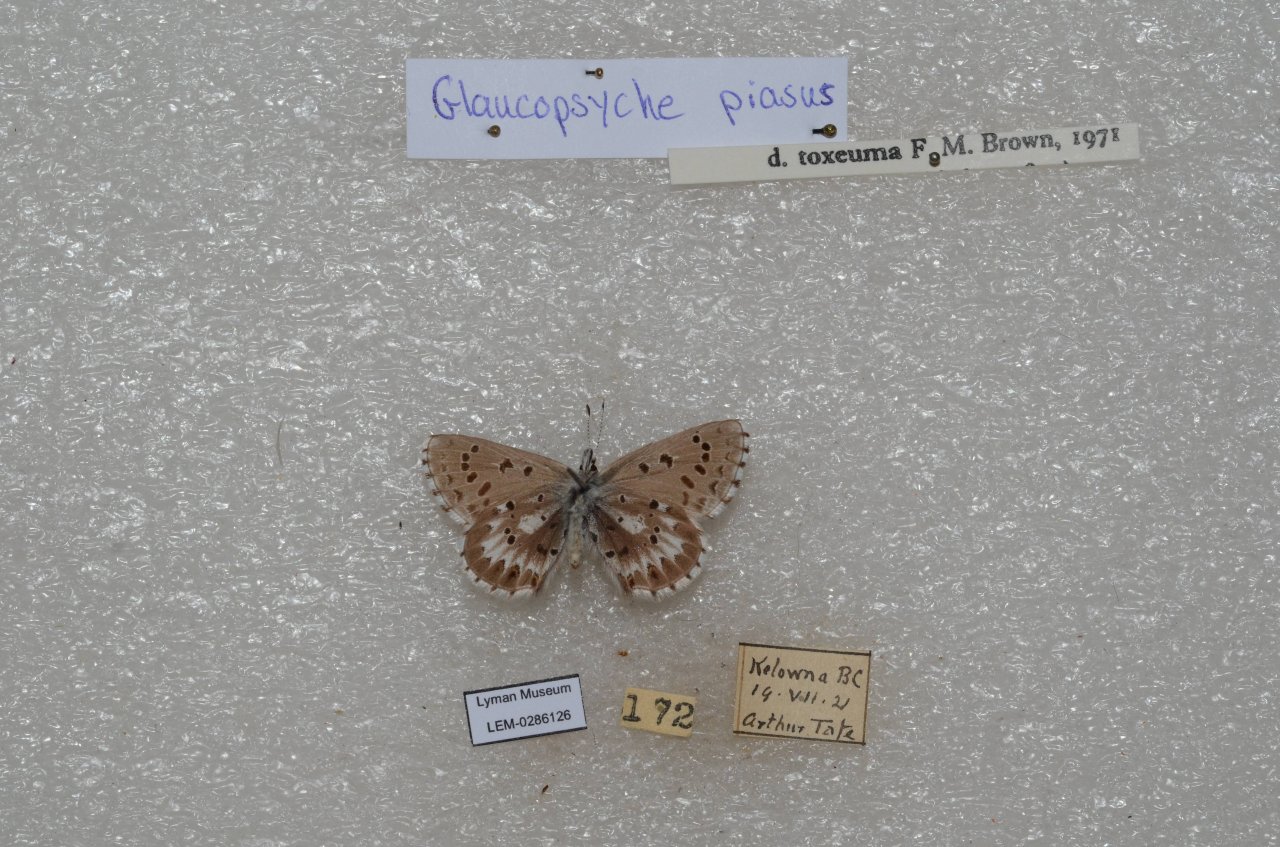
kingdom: Animalia
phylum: Arthropoda
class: Insecta
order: Lepidoptera
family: Lycaenidae
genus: Glaucopsyche
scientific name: Glaucopsyche piasus
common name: Arrowhead Blue
